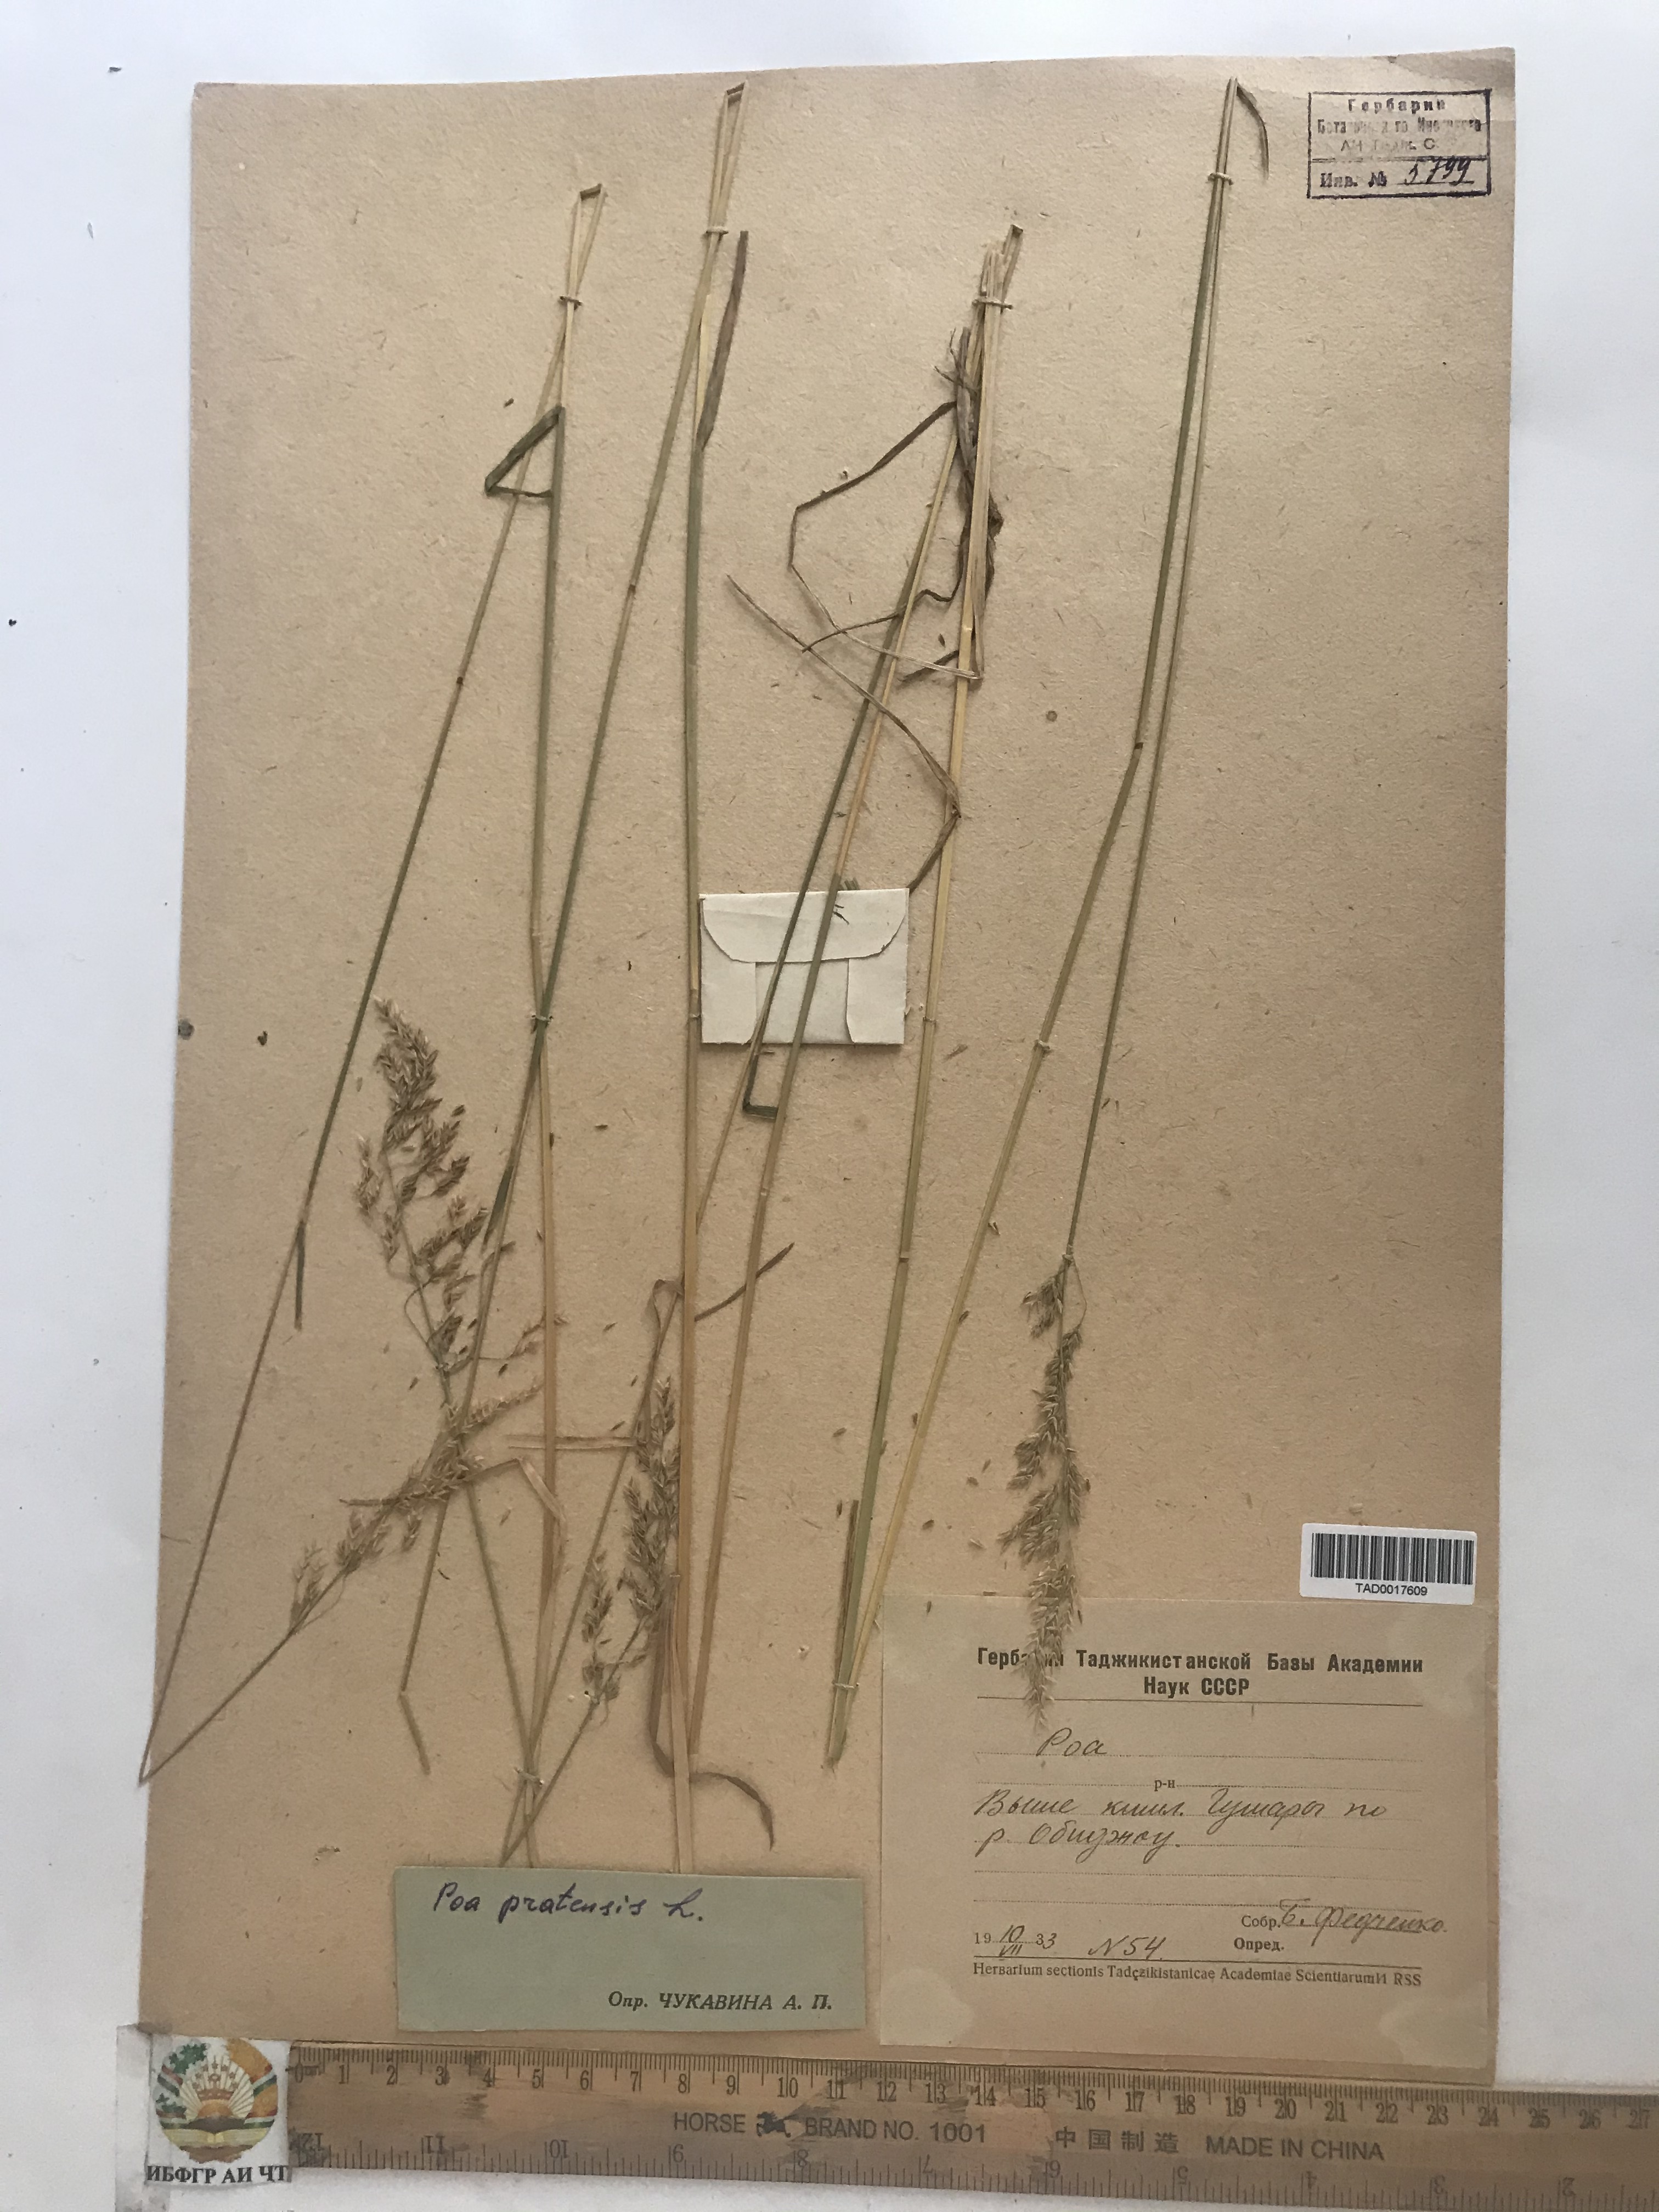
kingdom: Plantae
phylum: Tracheophyta
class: Liliopsida
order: Poales
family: Poaceae
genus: Poa
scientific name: Poa pratensis
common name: Kentucky bluegrass
